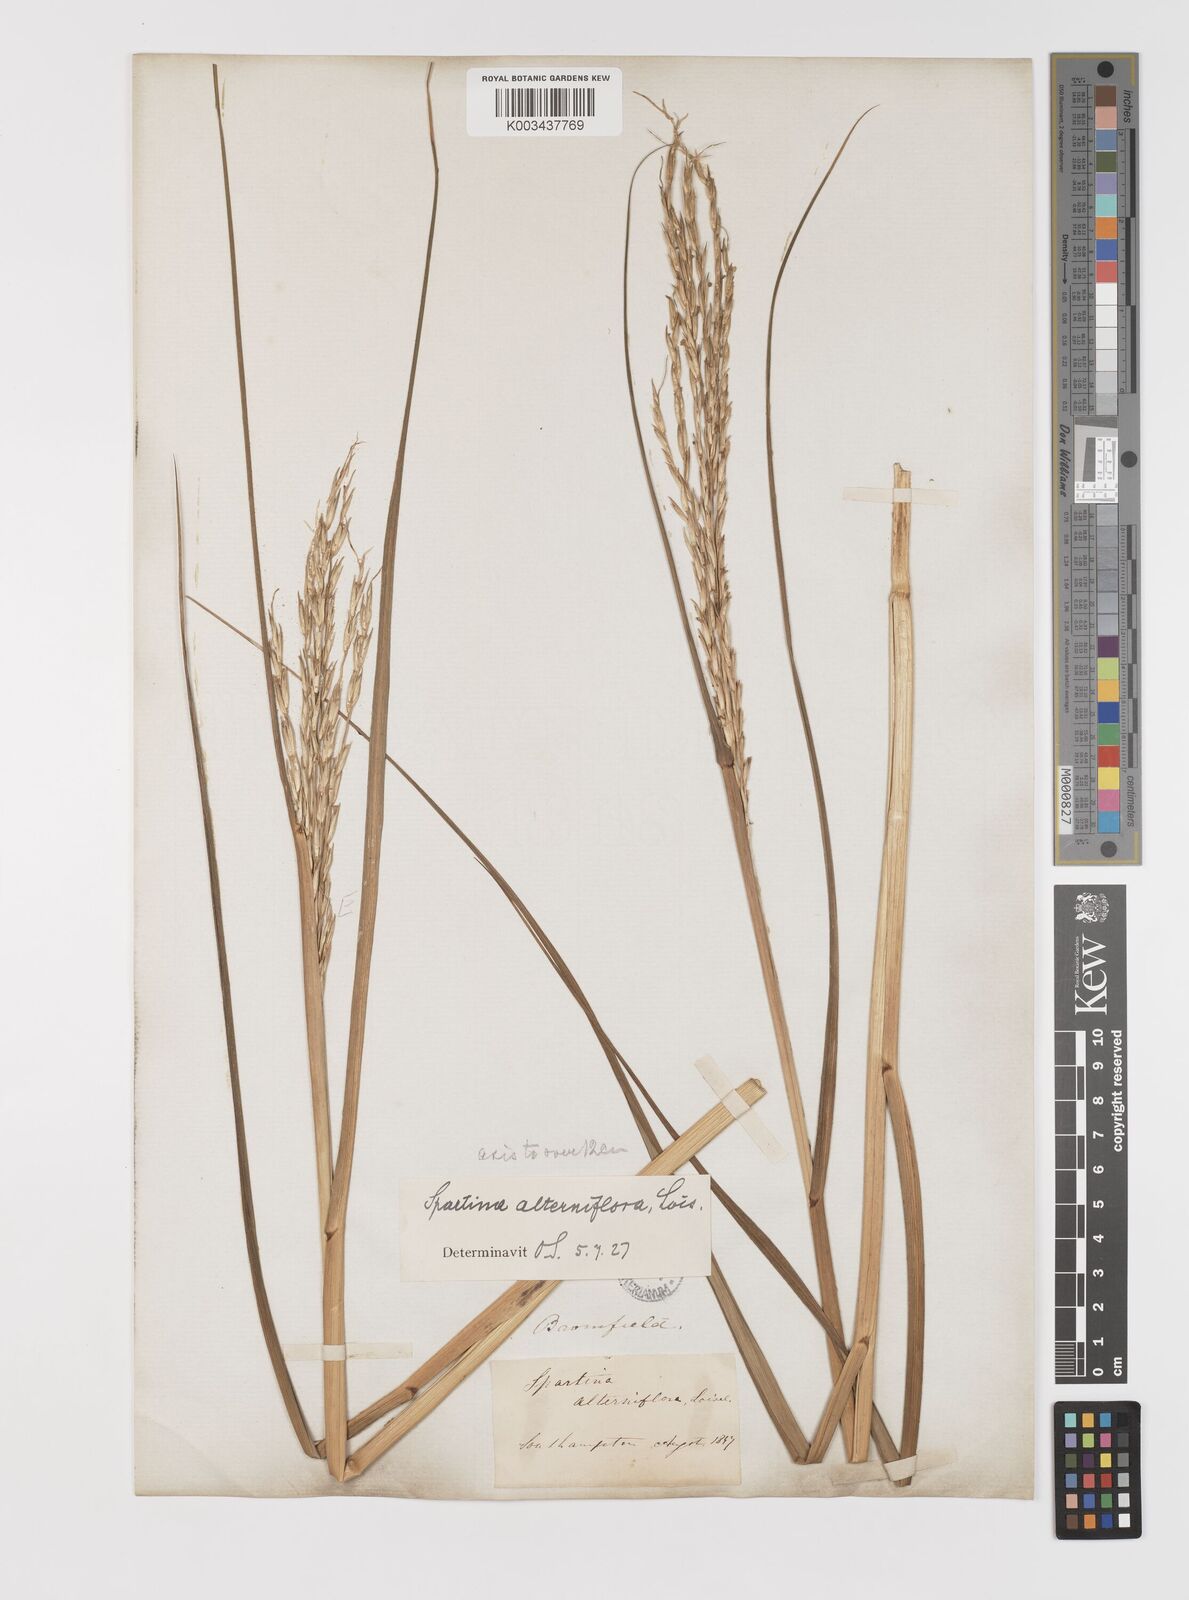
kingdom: Plantae
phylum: Tracheophyta
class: Liliopsida
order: Poales
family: Poaceae
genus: Sporobolus
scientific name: Sporobolus alterniflorus
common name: Atlantic cordgrass
